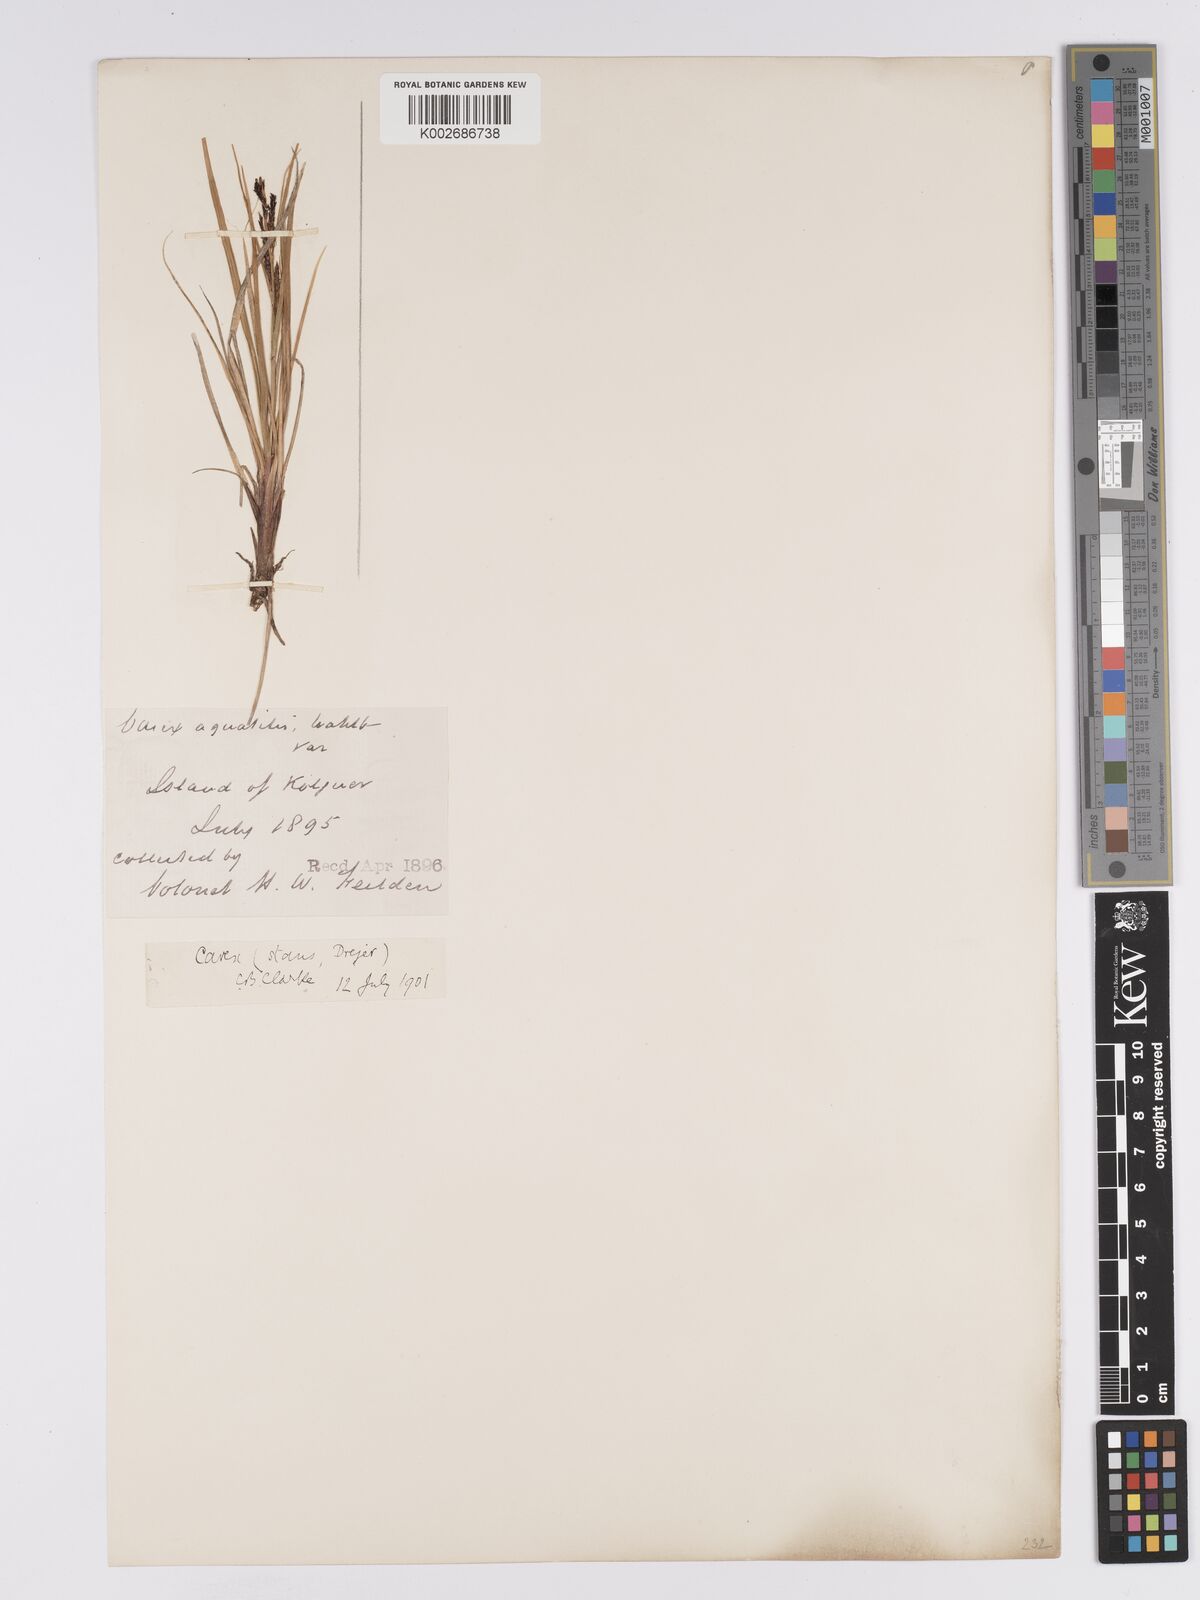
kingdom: Plantae
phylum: Tracheophyta
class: Liliopsida
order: Poales
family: Cyperaceae
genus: Carex
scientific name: Carex aquatilis
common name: Water sedge
